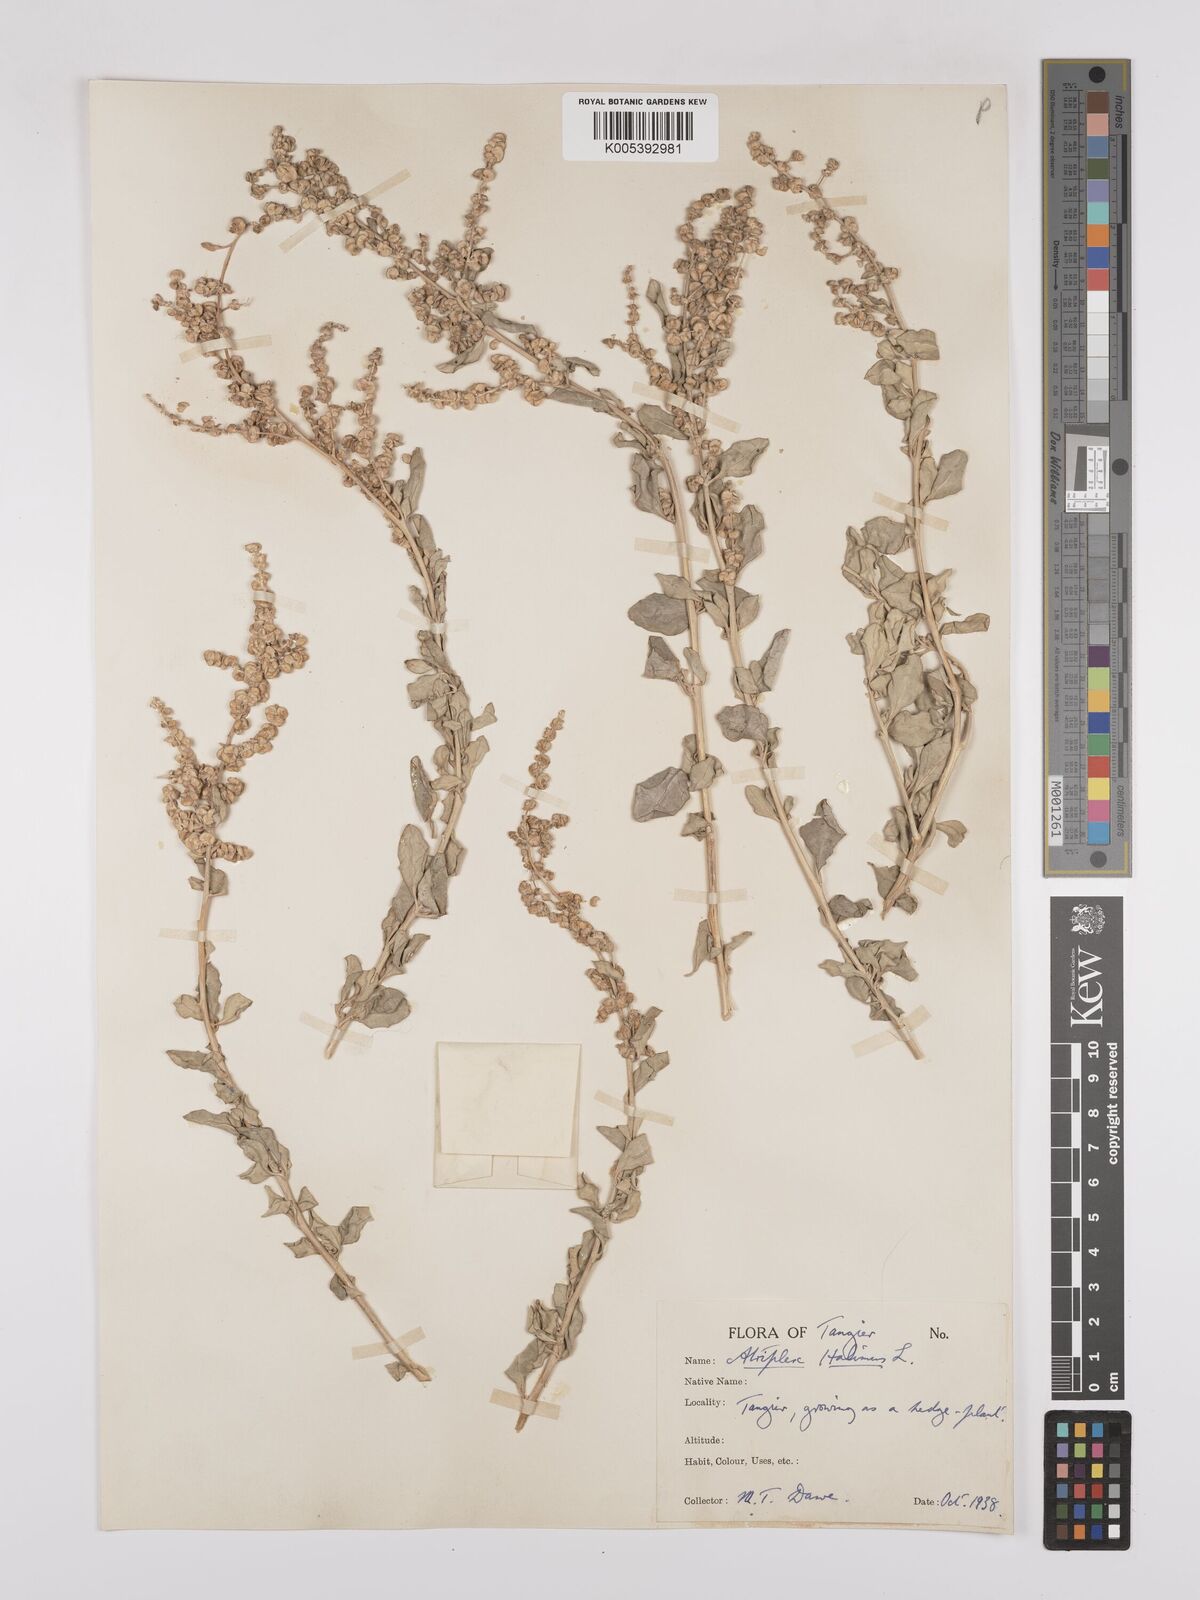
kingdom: Plantae
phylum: Tracheophyta
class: Magnoliopsida
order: Caryophyllales
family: Amaranthaceae
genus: Atriplex
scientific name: Atriplex
